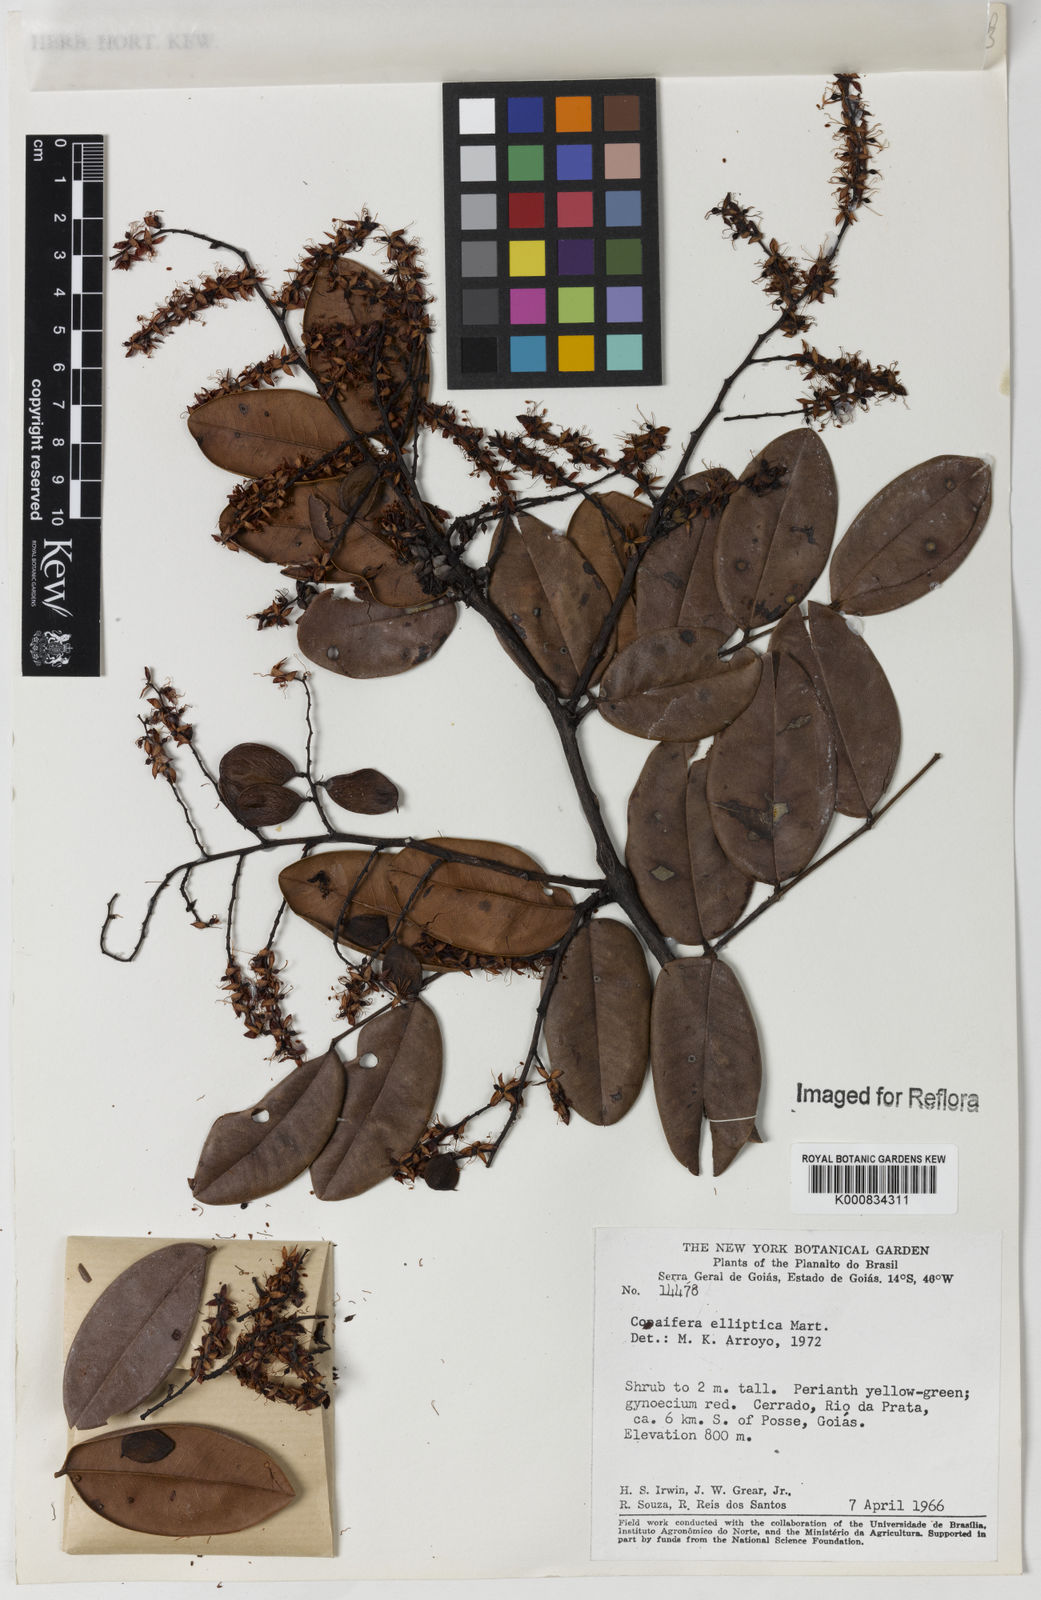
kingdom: Plantae
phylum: Tracheophyta
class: Magnoliopsida
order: Fabales
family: Fabaceae
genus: Copaifera
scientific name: Copaifera elliptica
